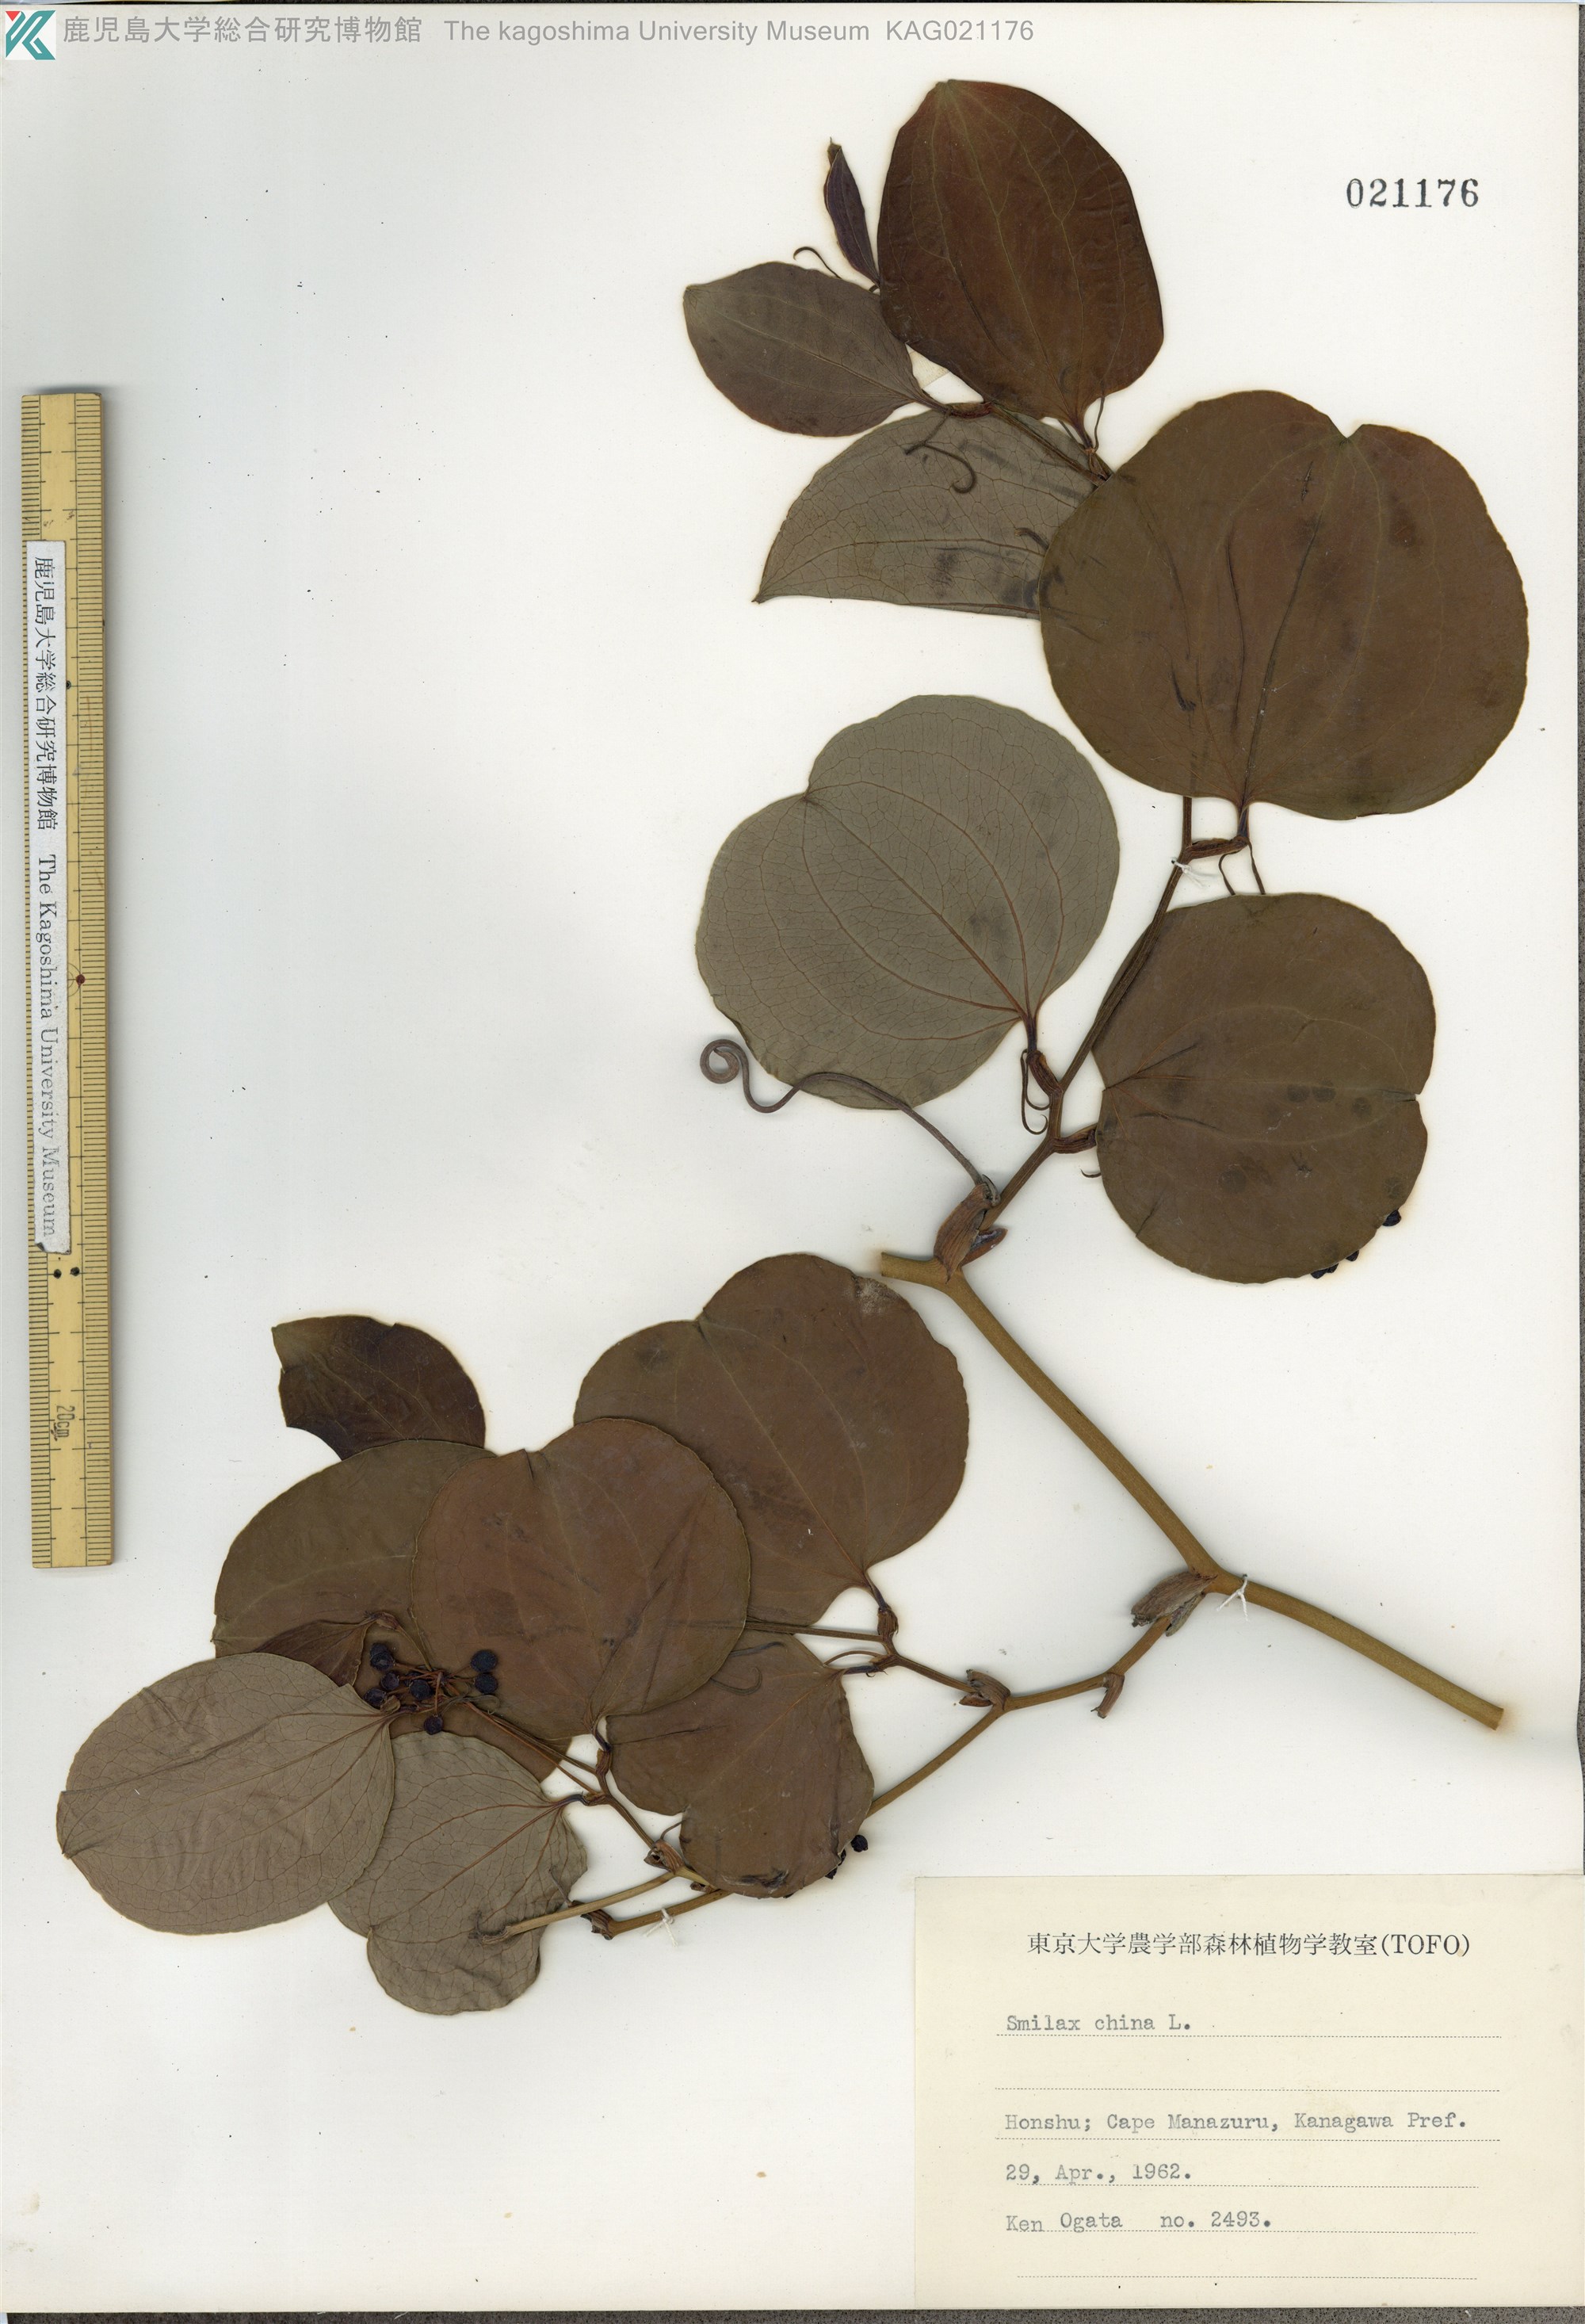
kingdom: Plantae
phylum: Tracheophyta
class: Liliopsida
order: Liliales
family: Smilacaceae
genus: Smilax
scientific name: Smilax china
